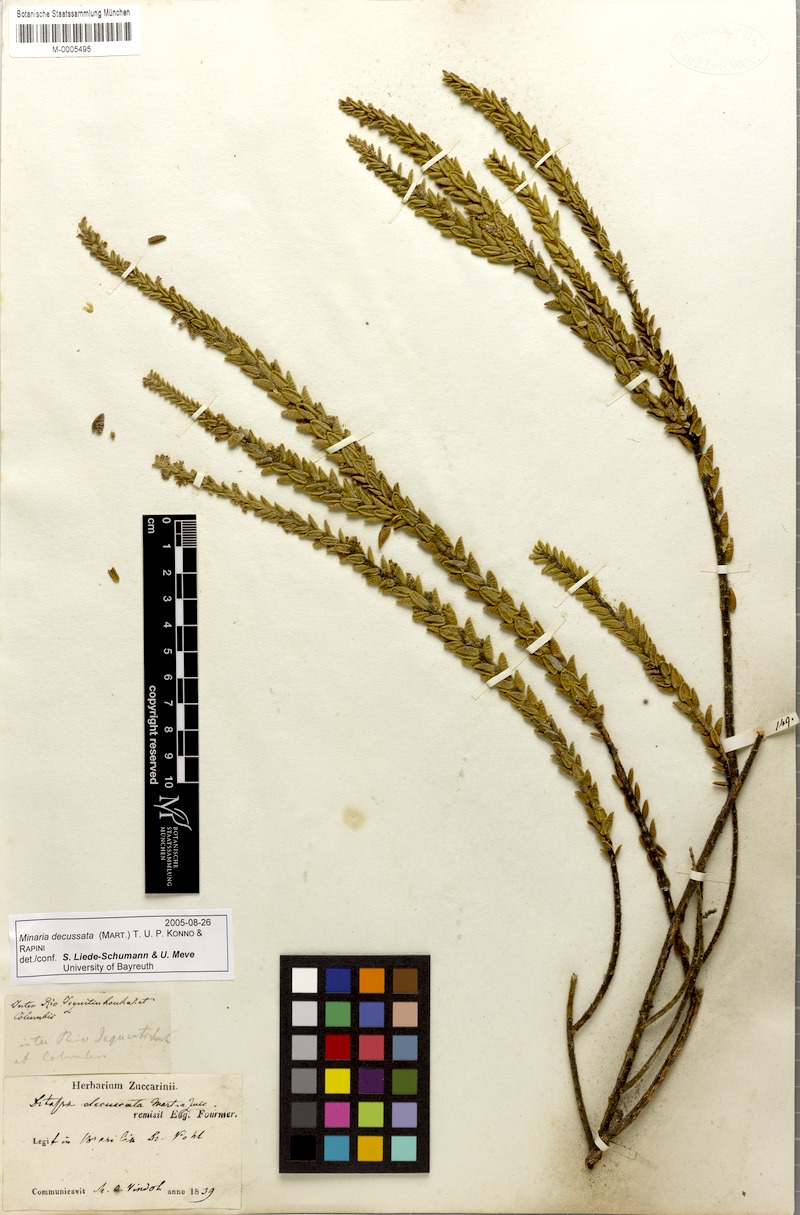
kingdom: Plantae
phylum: Tracheophyta
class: Magnoliopsida
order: Gentianales
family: Apocynaceae
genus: Minaria
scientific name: Minaria decussata
